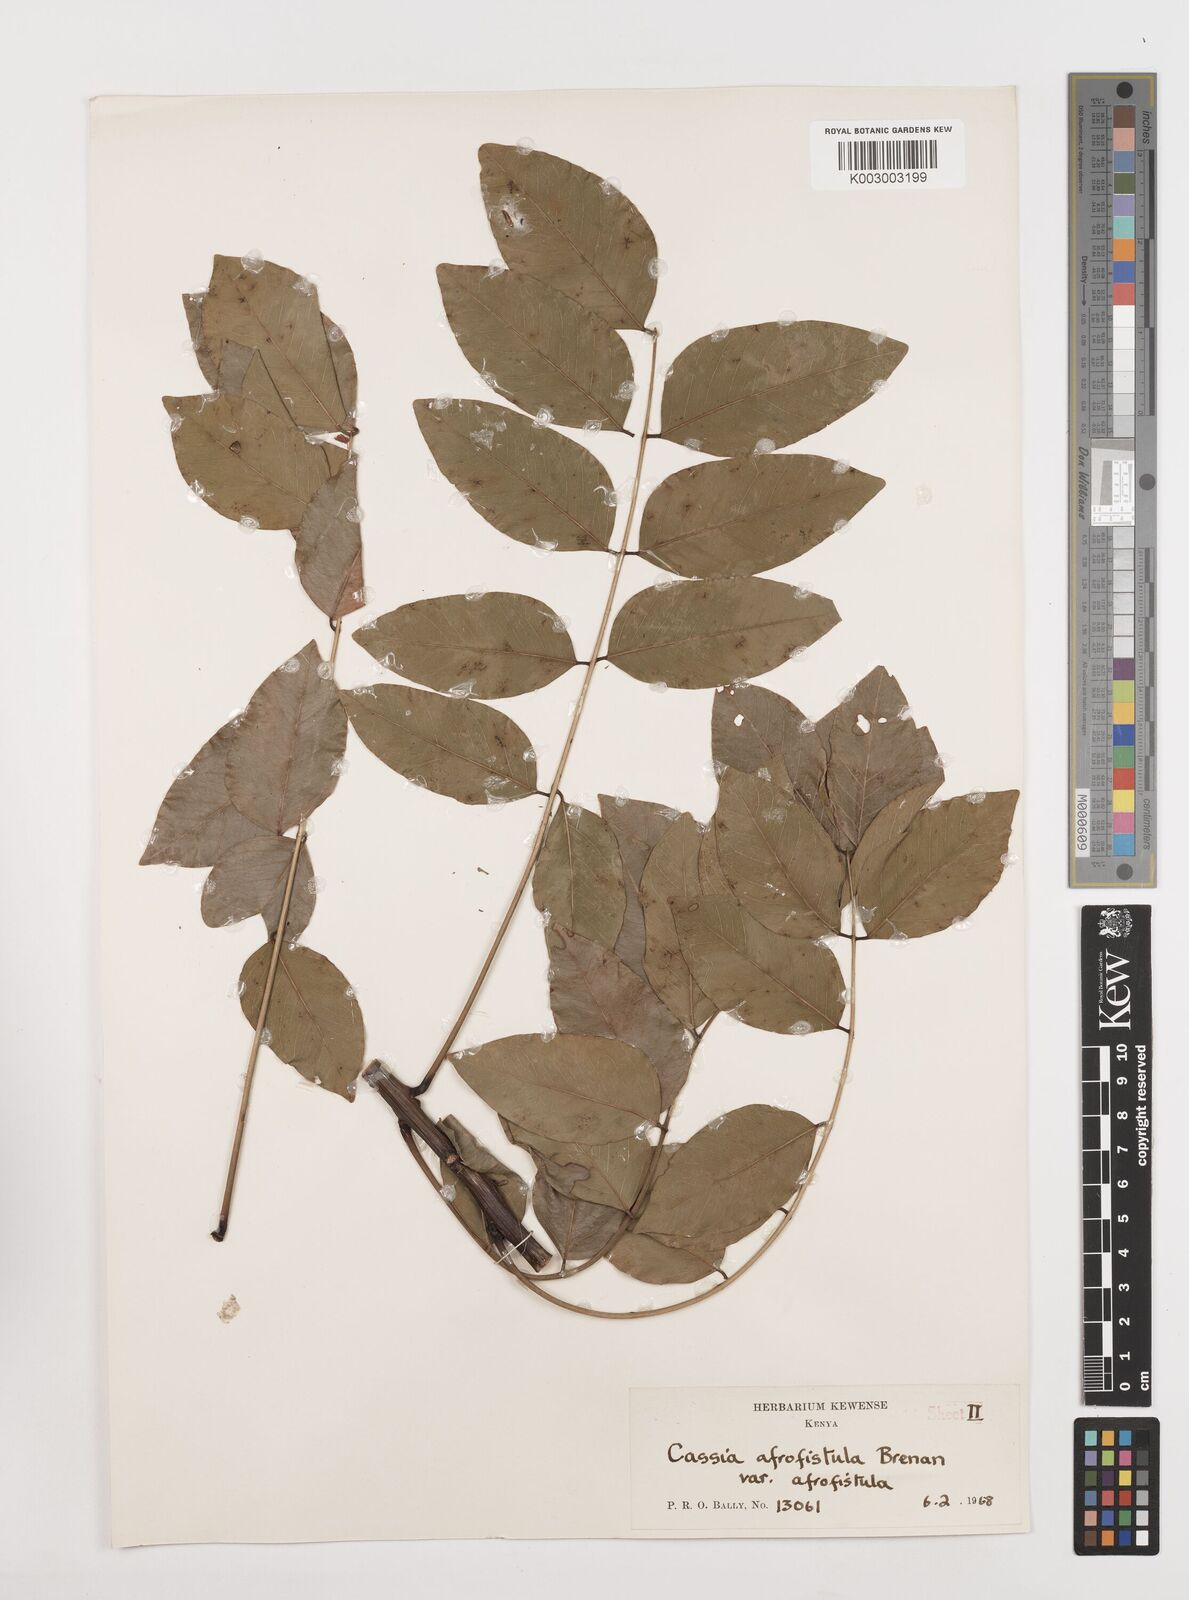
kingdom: Plantae
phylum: Tracheophyta
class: Magnoliopsida
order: Fabales
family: Fabaceae
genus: Cassia
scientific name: Cassia afrofistula
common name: Kenyan shower
